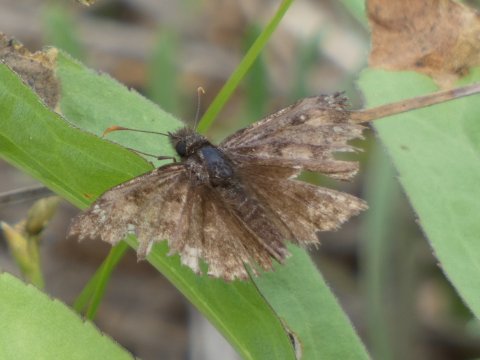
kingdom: Animalia
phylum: Arthropoda
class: Insecta
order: Lepidoptera
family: Hesperiidae
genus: Gesta
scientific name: Gesta
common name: Juvenal's Duskywing
